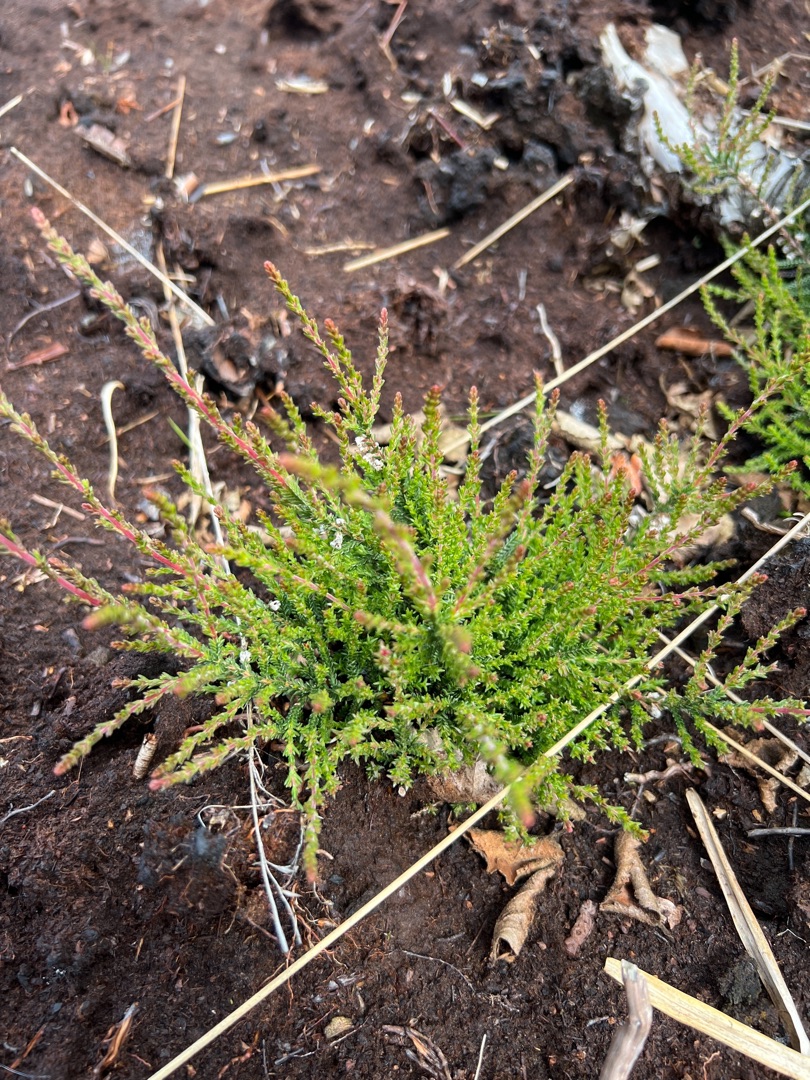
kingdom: Plantae
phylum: Tracheophyta
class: Magnoliopsida
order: Ericales
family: Ericaceae
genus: Calluna
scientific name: Calluna vulgaris
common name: Hedelyng
